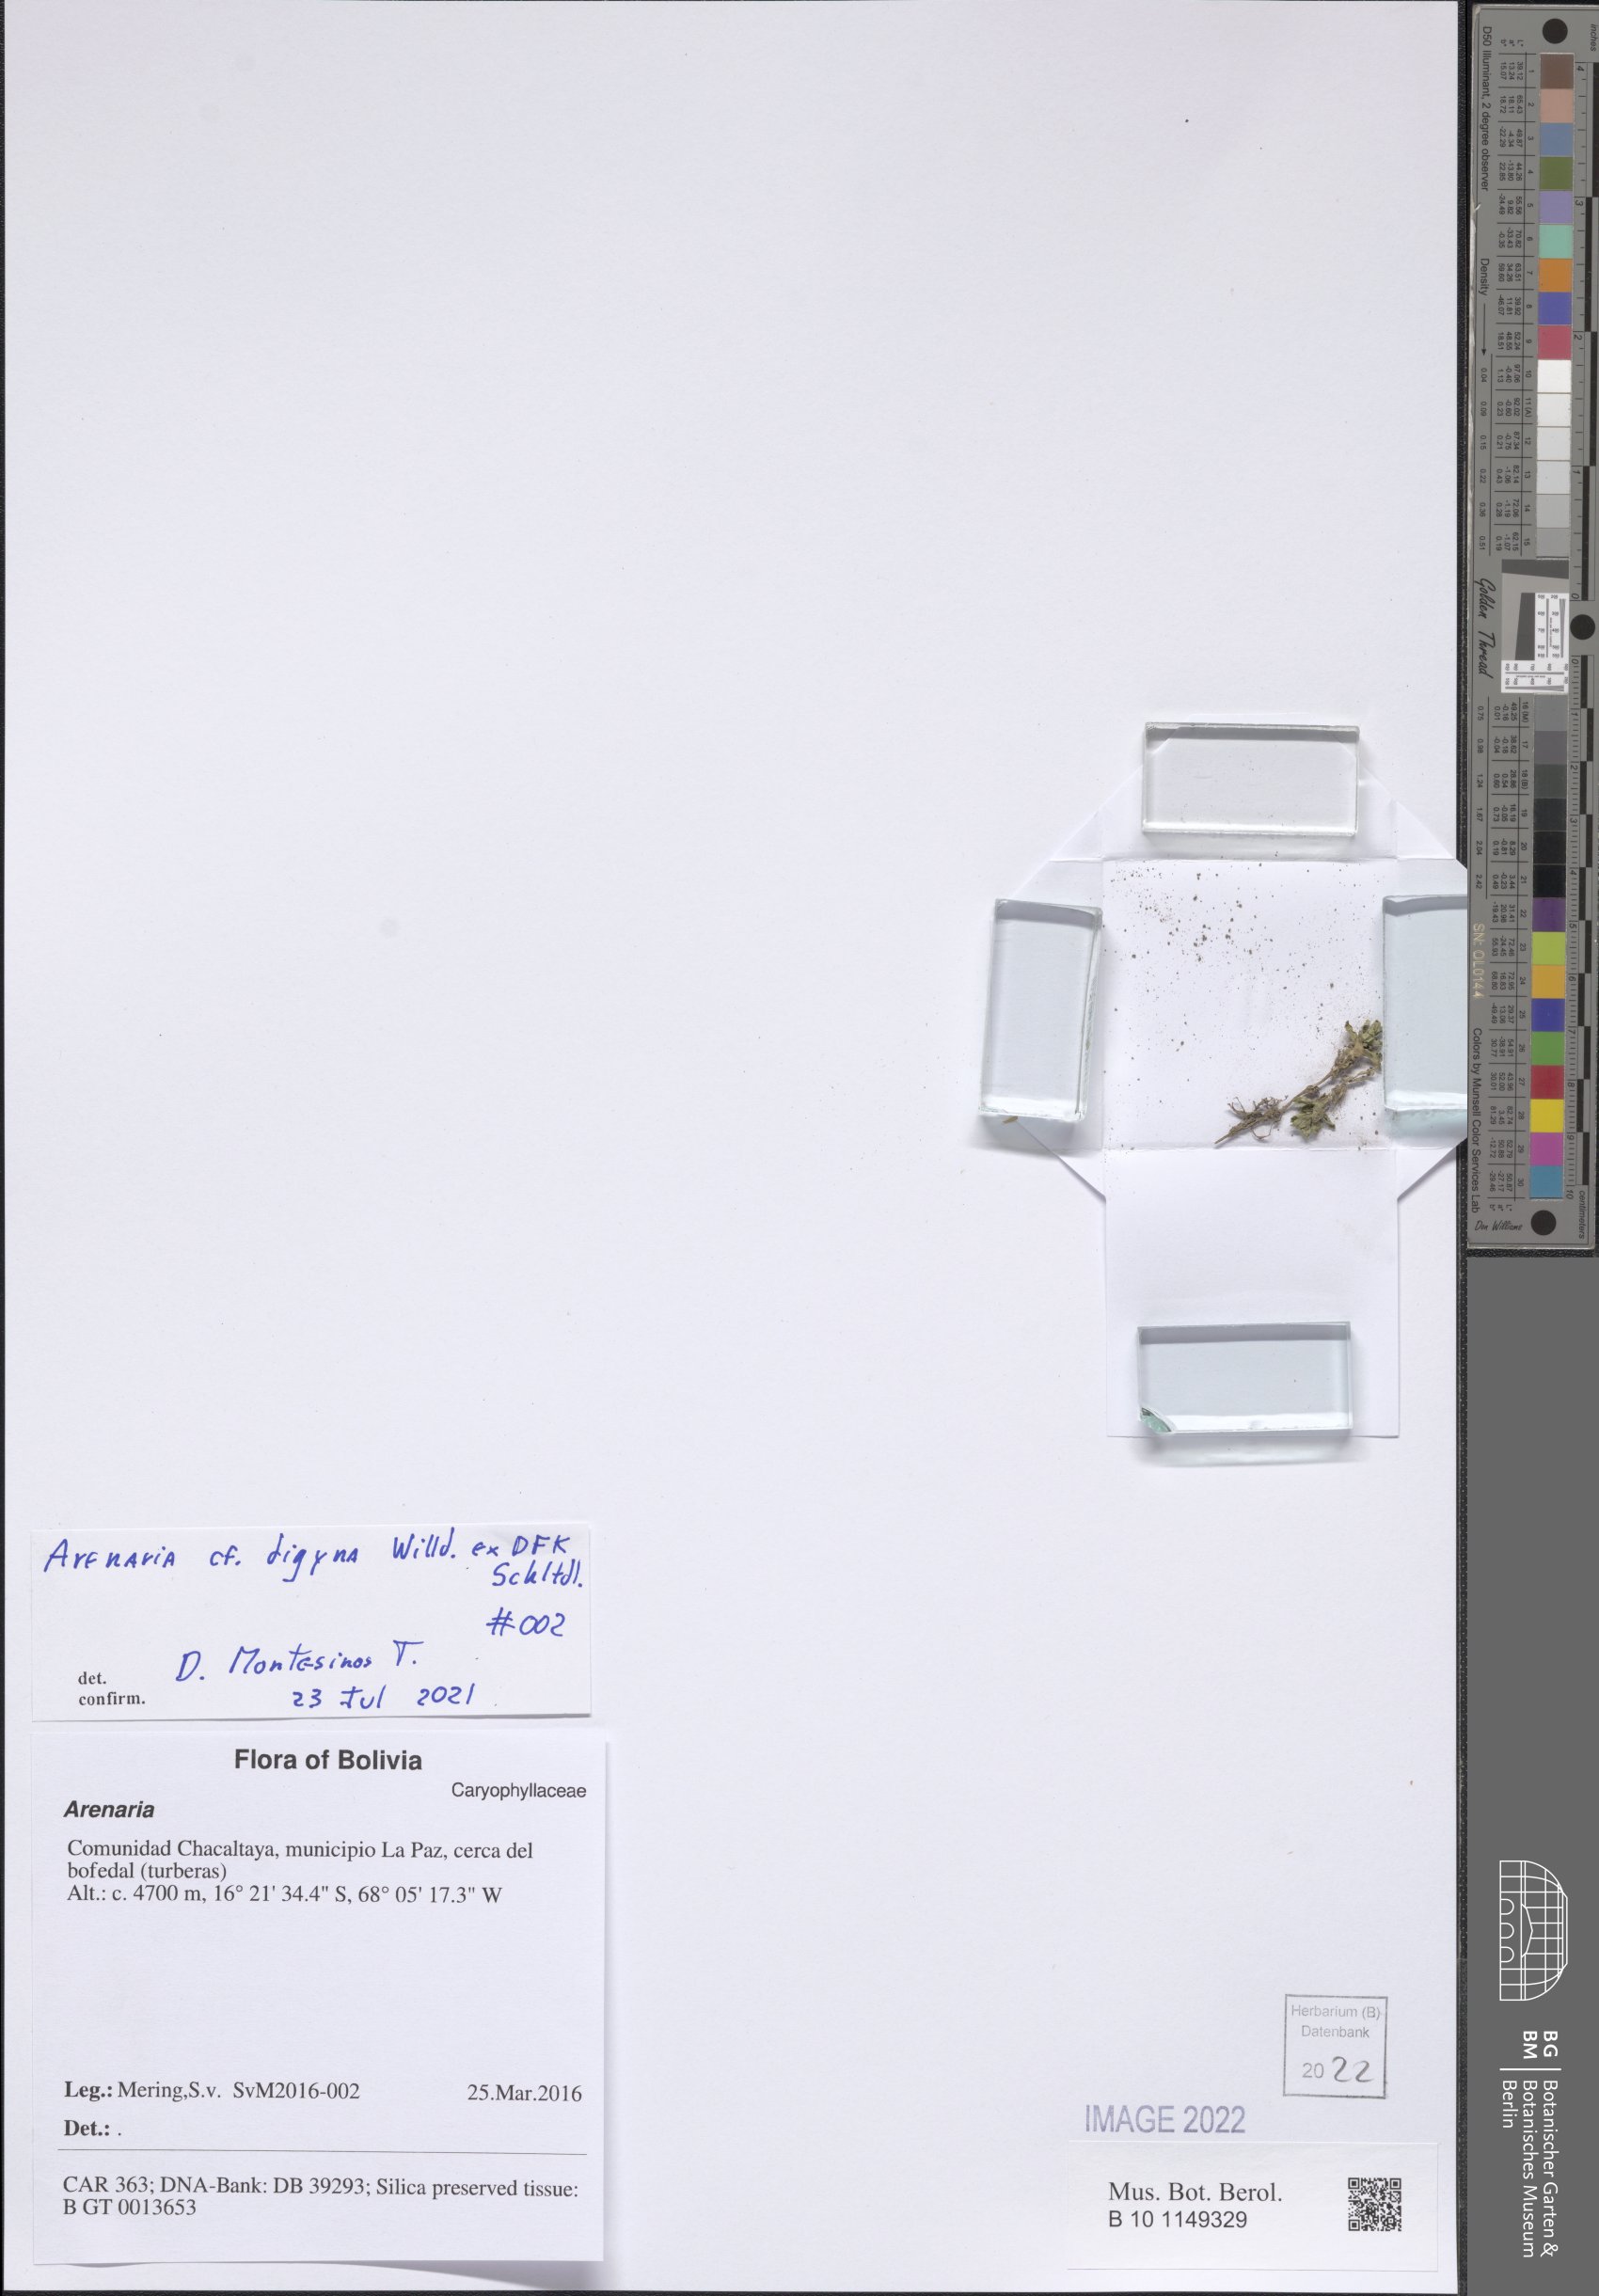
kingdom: Plantae
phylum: Tracheophyta
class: Magnoliopsida
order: Caryophyllales
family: Caryophyllaceae
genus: Arenaria
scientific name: Arenaria digyna
